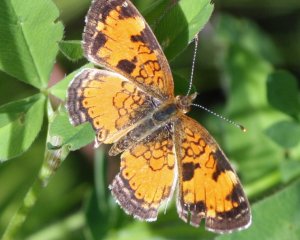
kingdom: Animalia
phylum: Arthropoda
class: Insecta
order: Lepidoptera
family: Nymphalidae
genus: Phyciodes
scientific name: Phyciodes tharos
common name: Northern Crescent
